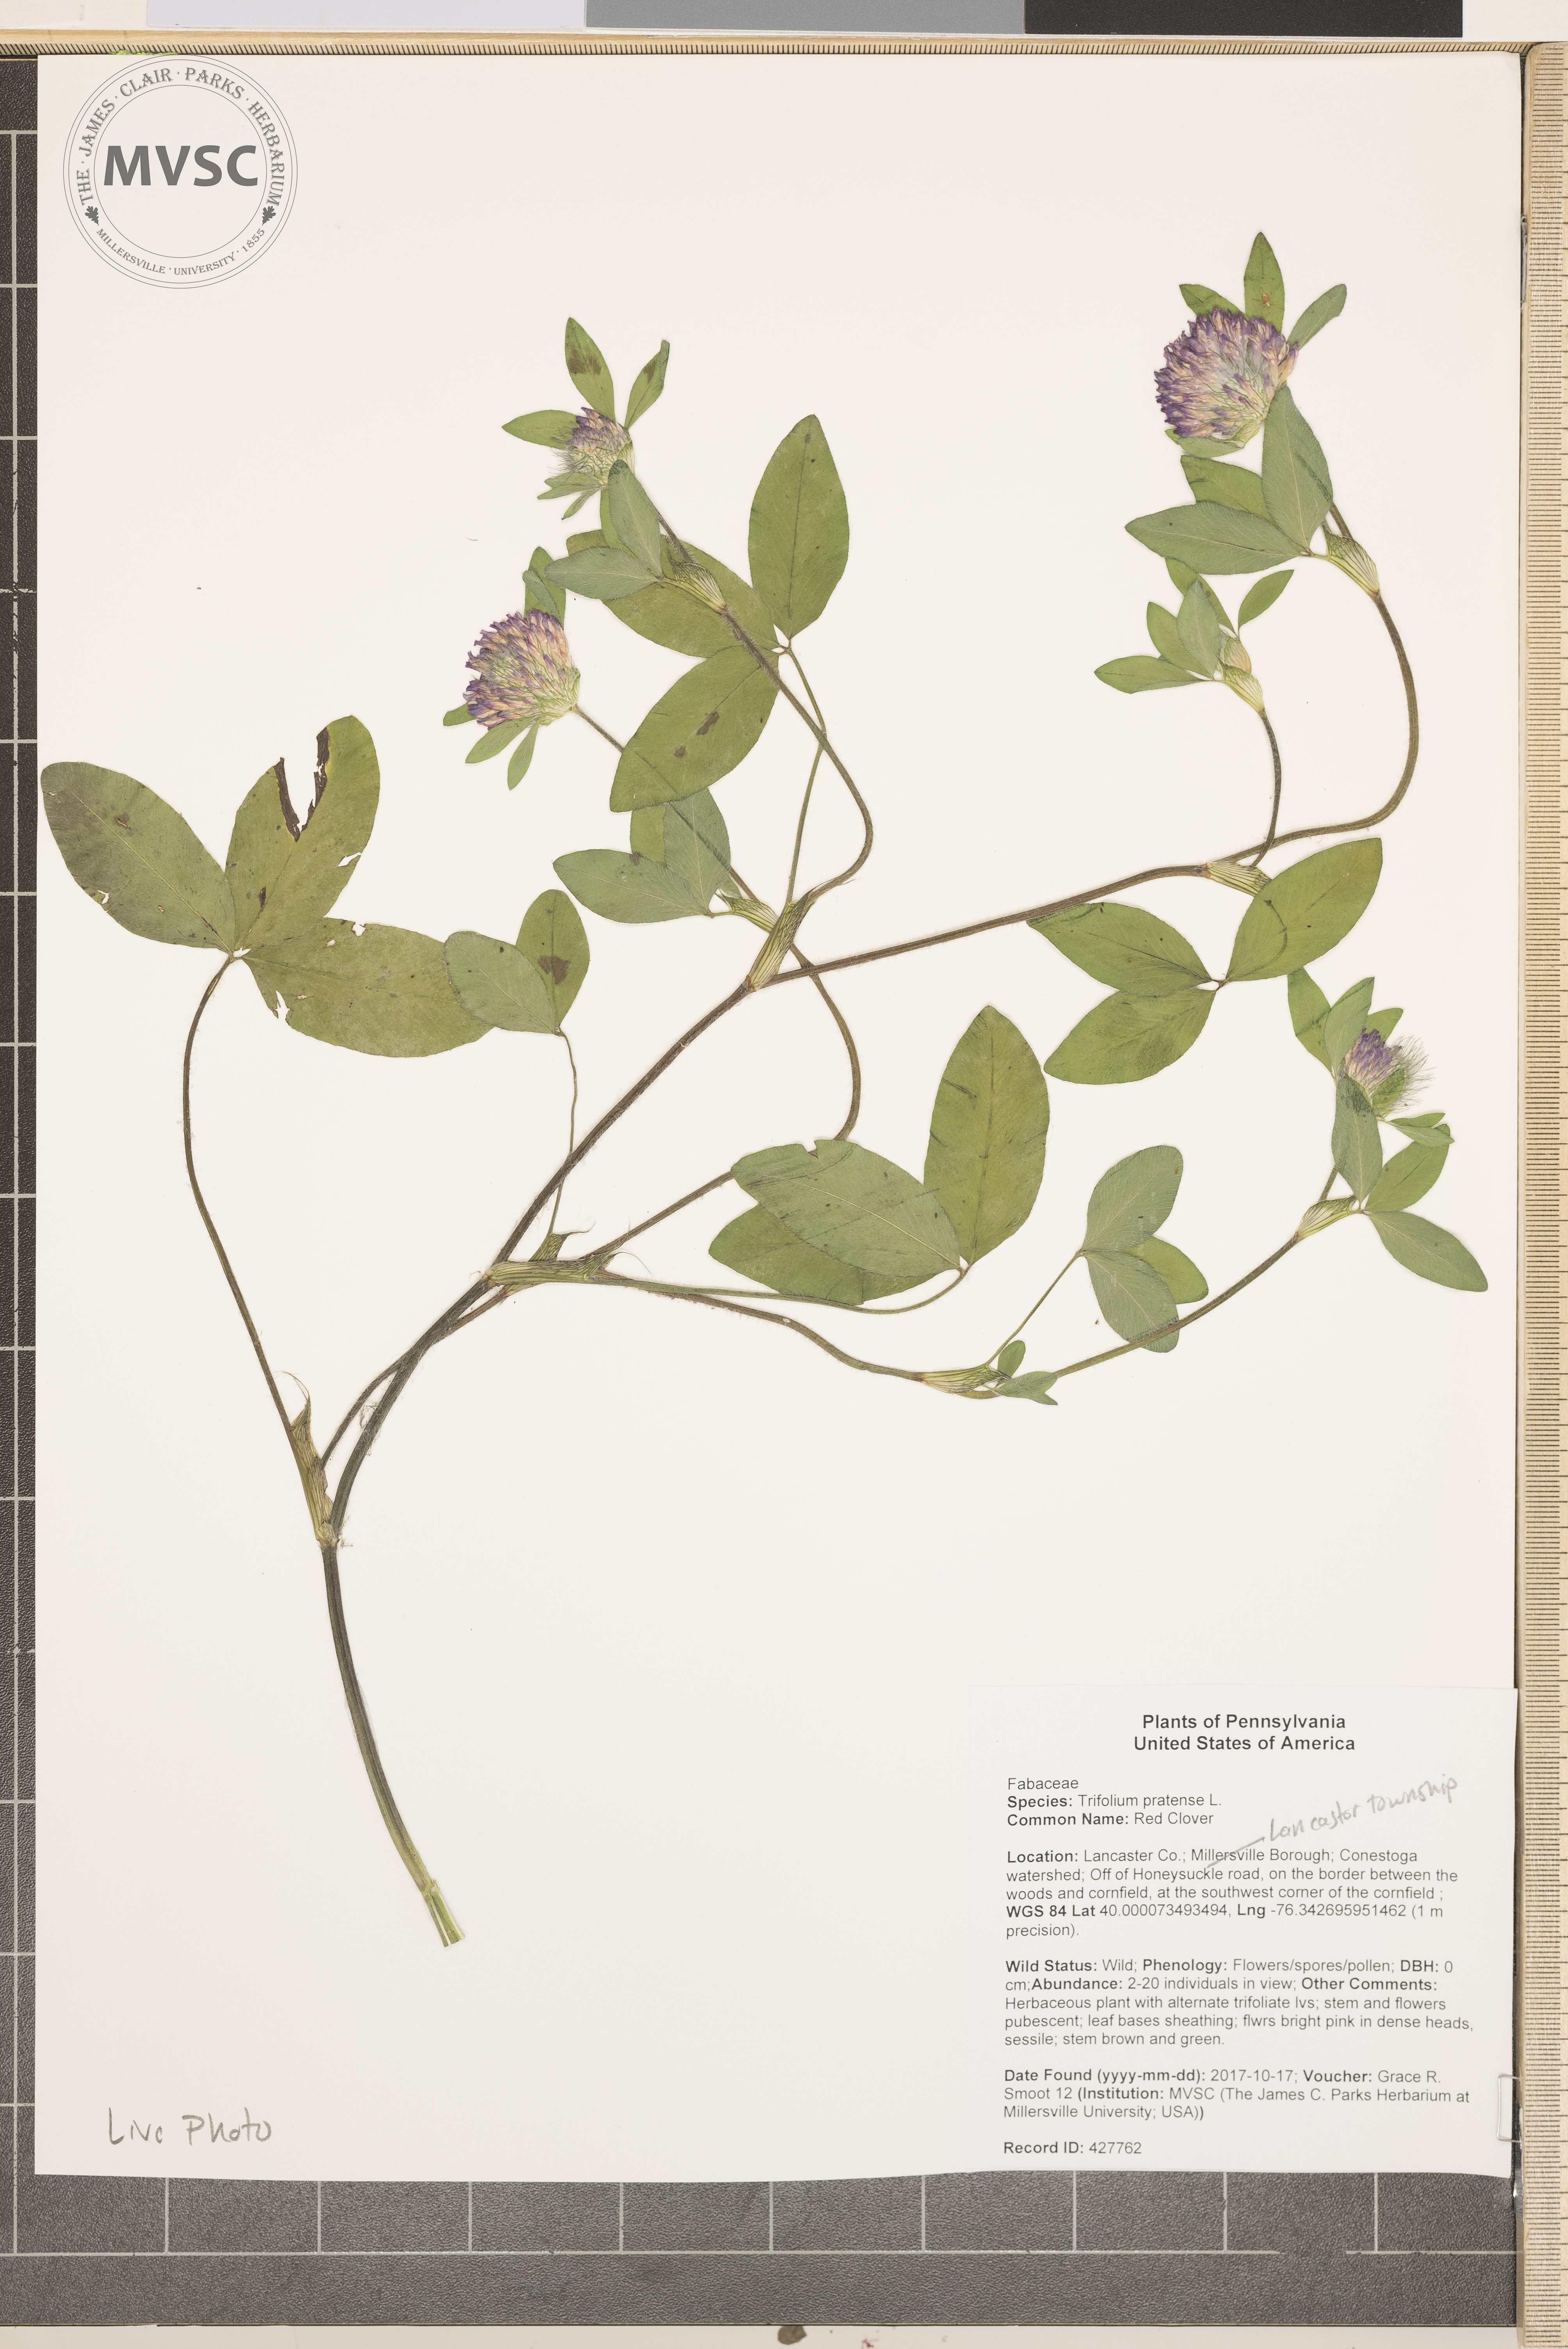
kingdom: Plantae
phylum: Tracheophyta
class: Magnoliopsida
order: Fabales
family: Fabaceae
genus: Trifolium
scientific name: Trifolium pratense
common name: Red Clover
